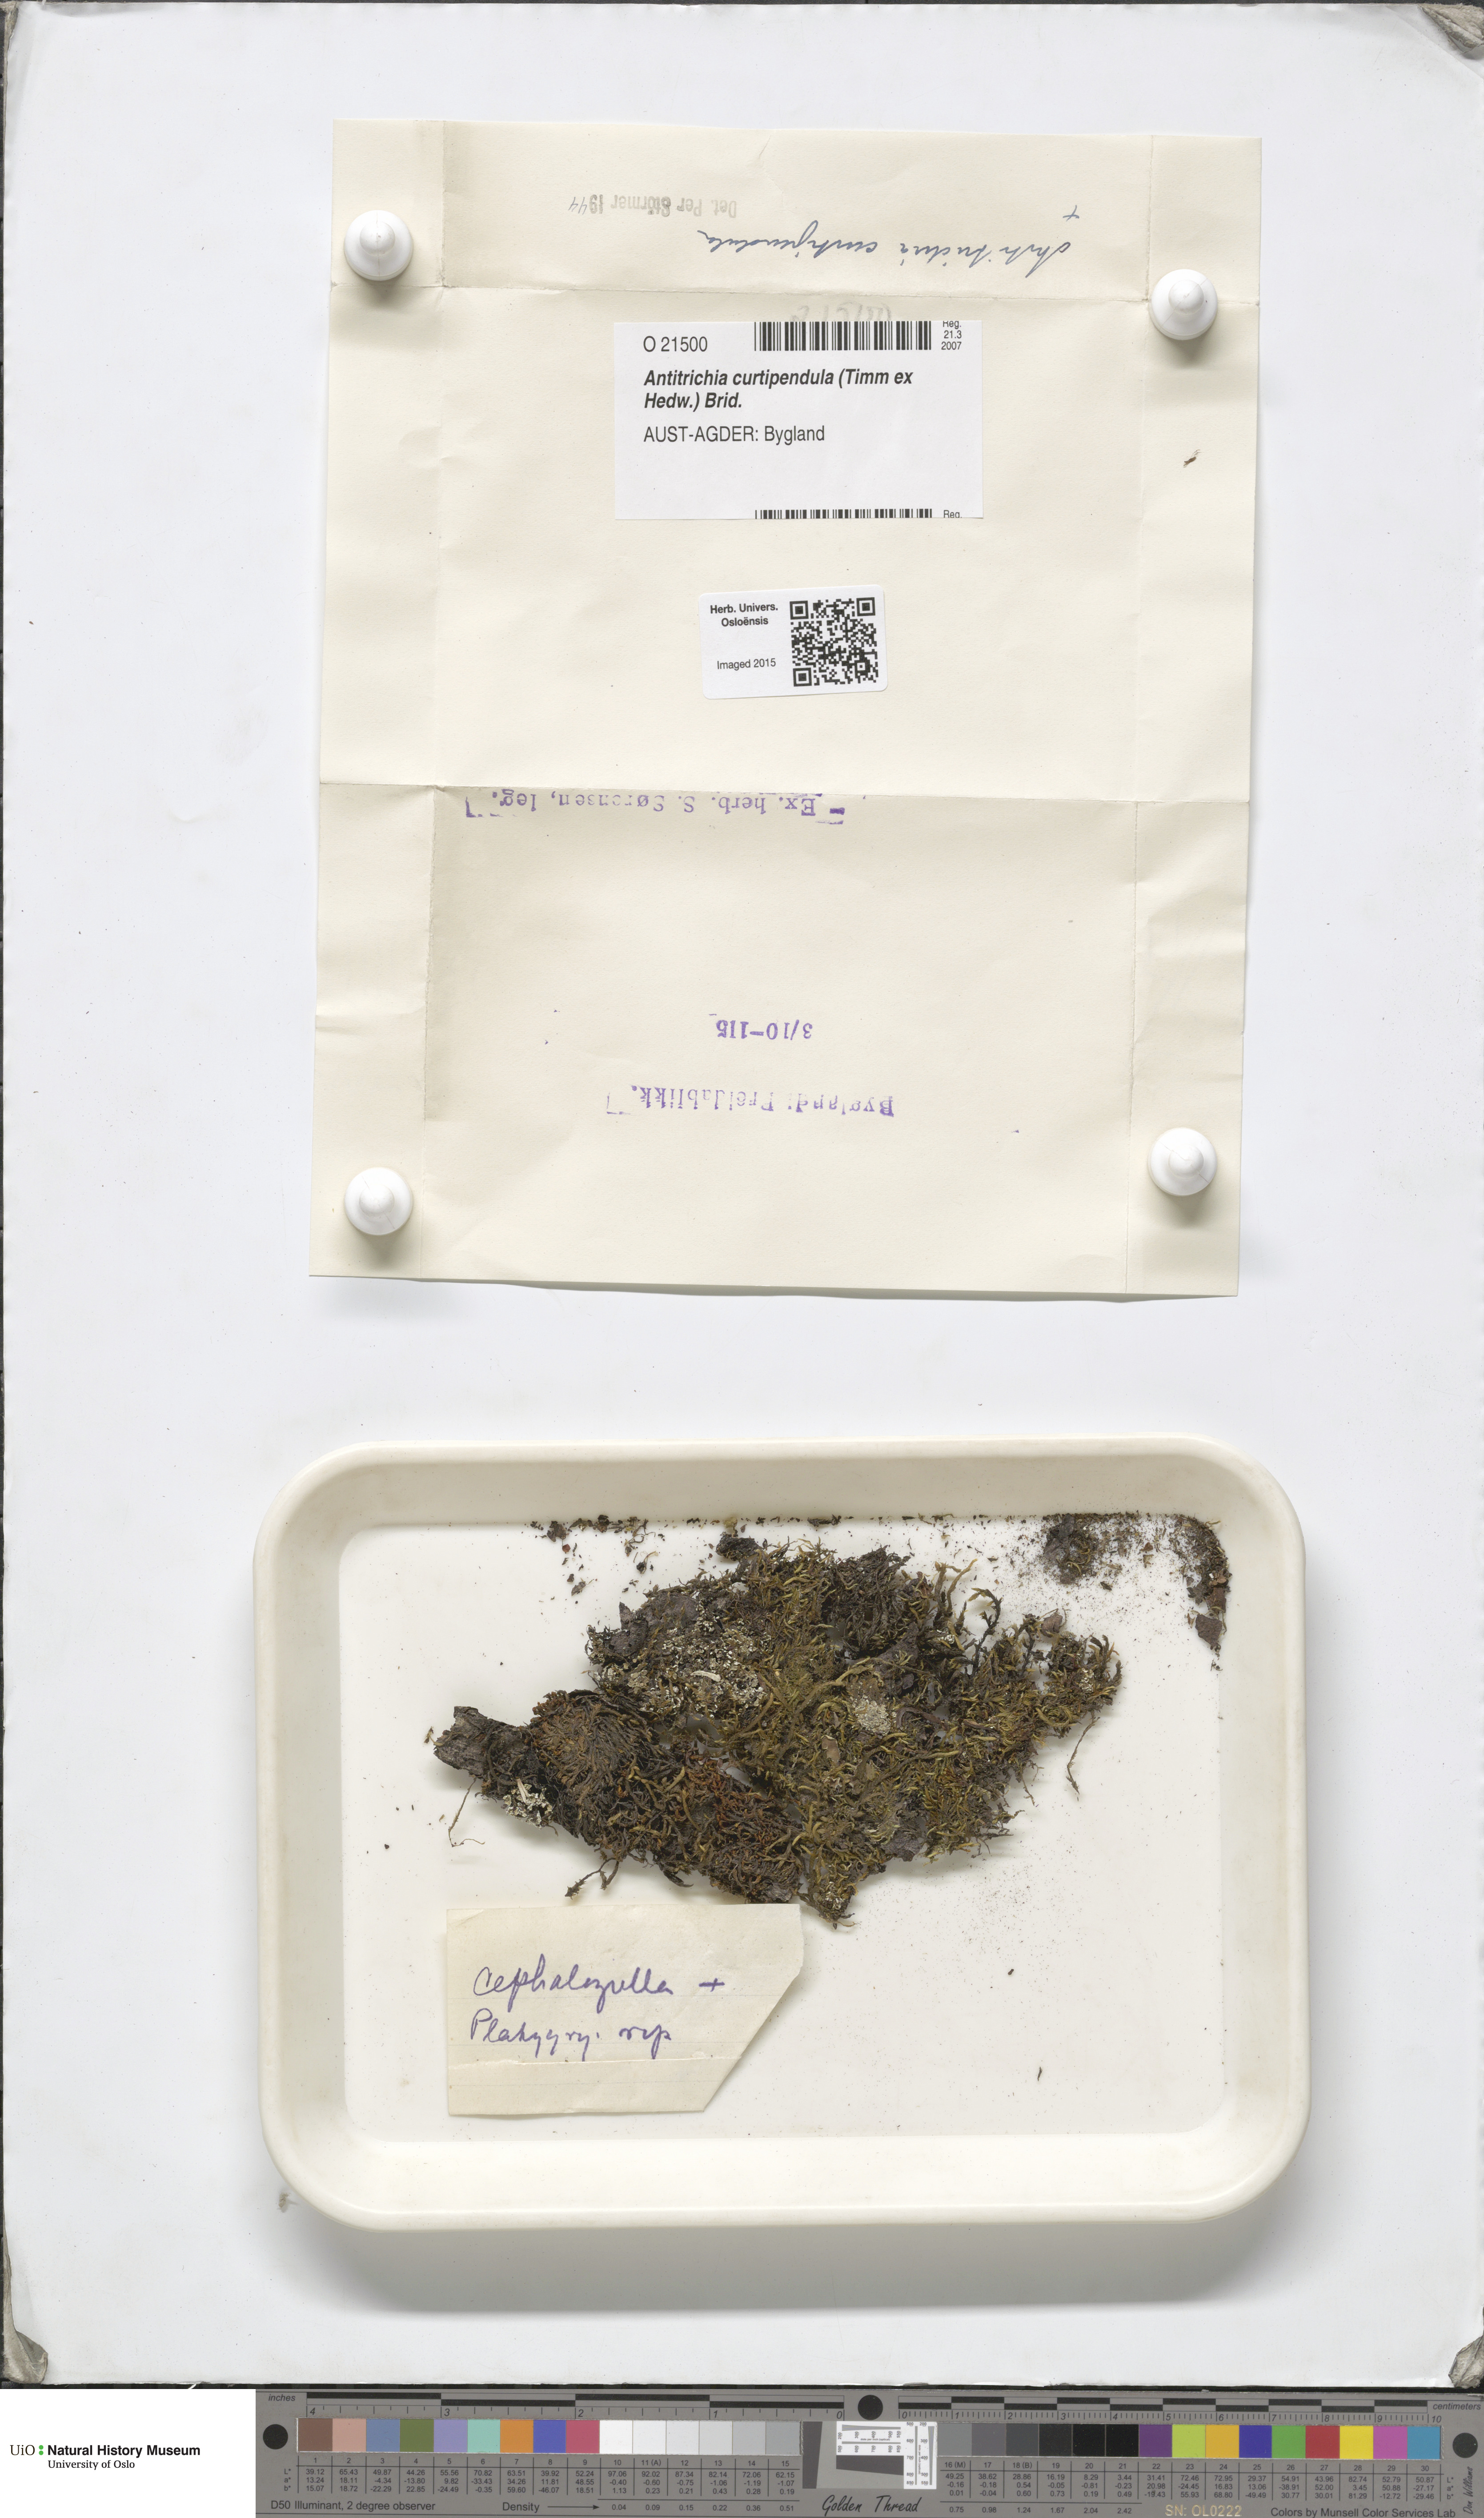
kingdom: Plantae
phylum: Bryophyta
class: Bryopsida
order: Hypnales
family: Antitrichiaceae
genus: Antitrichia
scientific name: Antitrichia curtipendula
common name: Pendulous wing-moss
